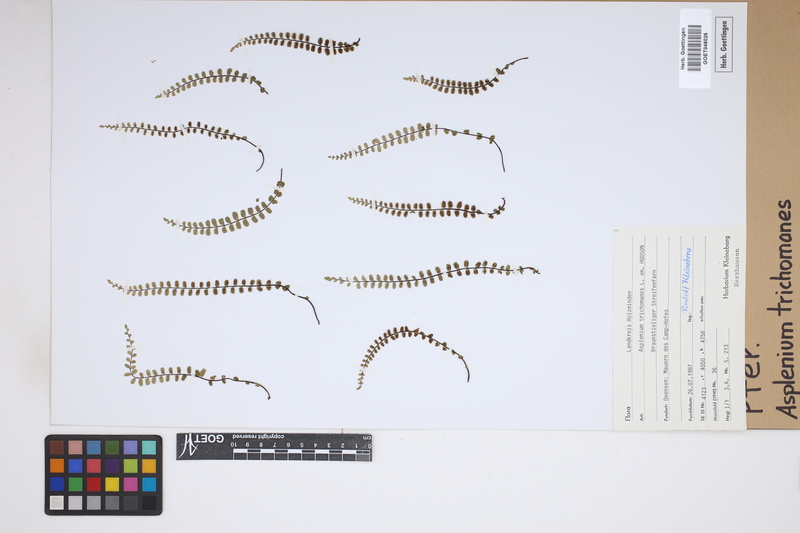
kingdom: Plantae
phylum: Tracheophyta
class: Polypodiopsida
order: Polypodiales
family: Aspleniaceae
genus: Asplenium
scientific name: Asplenium trichomanes
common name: Maidenhair spleenwort
